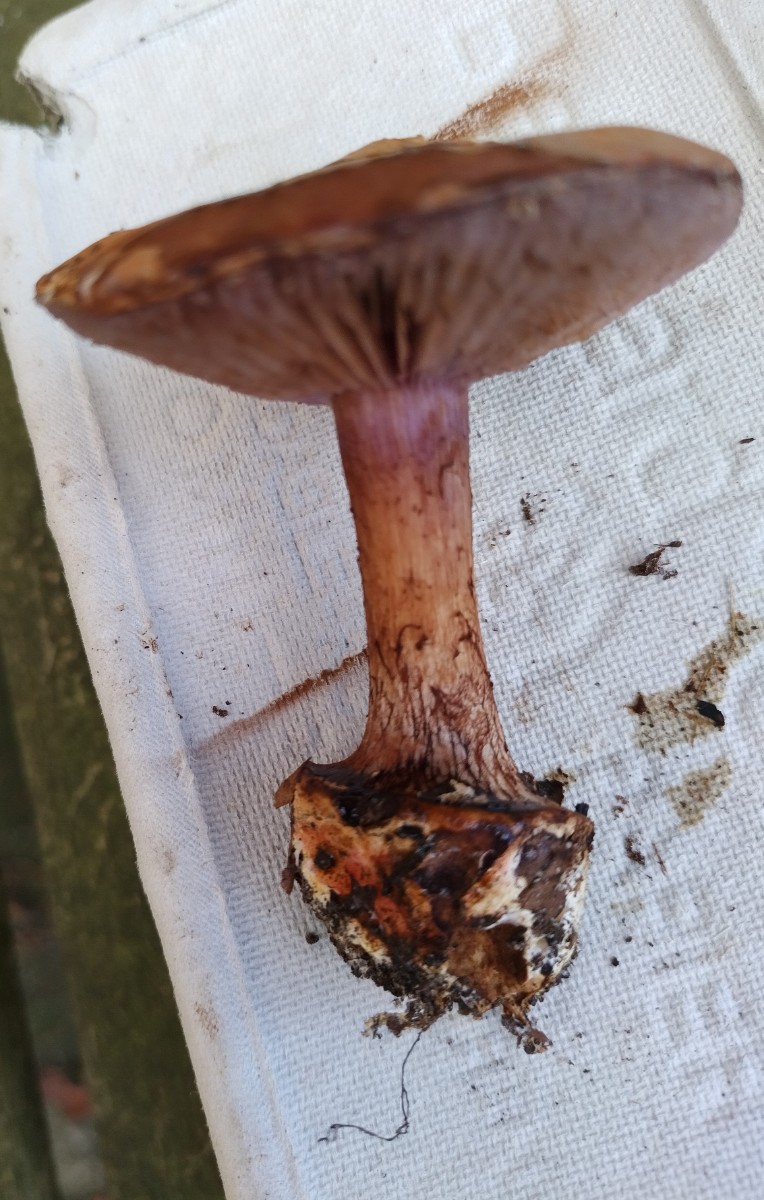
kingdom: Fungi
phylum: Basidiomycota
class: Agaricomycetes
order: Agaricales
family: Cortinariaceae
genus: Cortinarius
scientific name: Cortinarius
